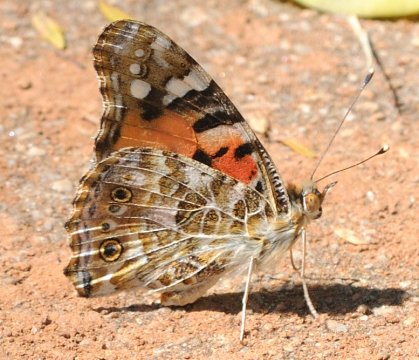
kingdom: Animalia
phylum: Arthropoda
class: Insecta
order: Lepidoptera
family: Nymphalidae
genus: Vanessa
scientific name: Vanessa cardui
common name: Painted Lady
